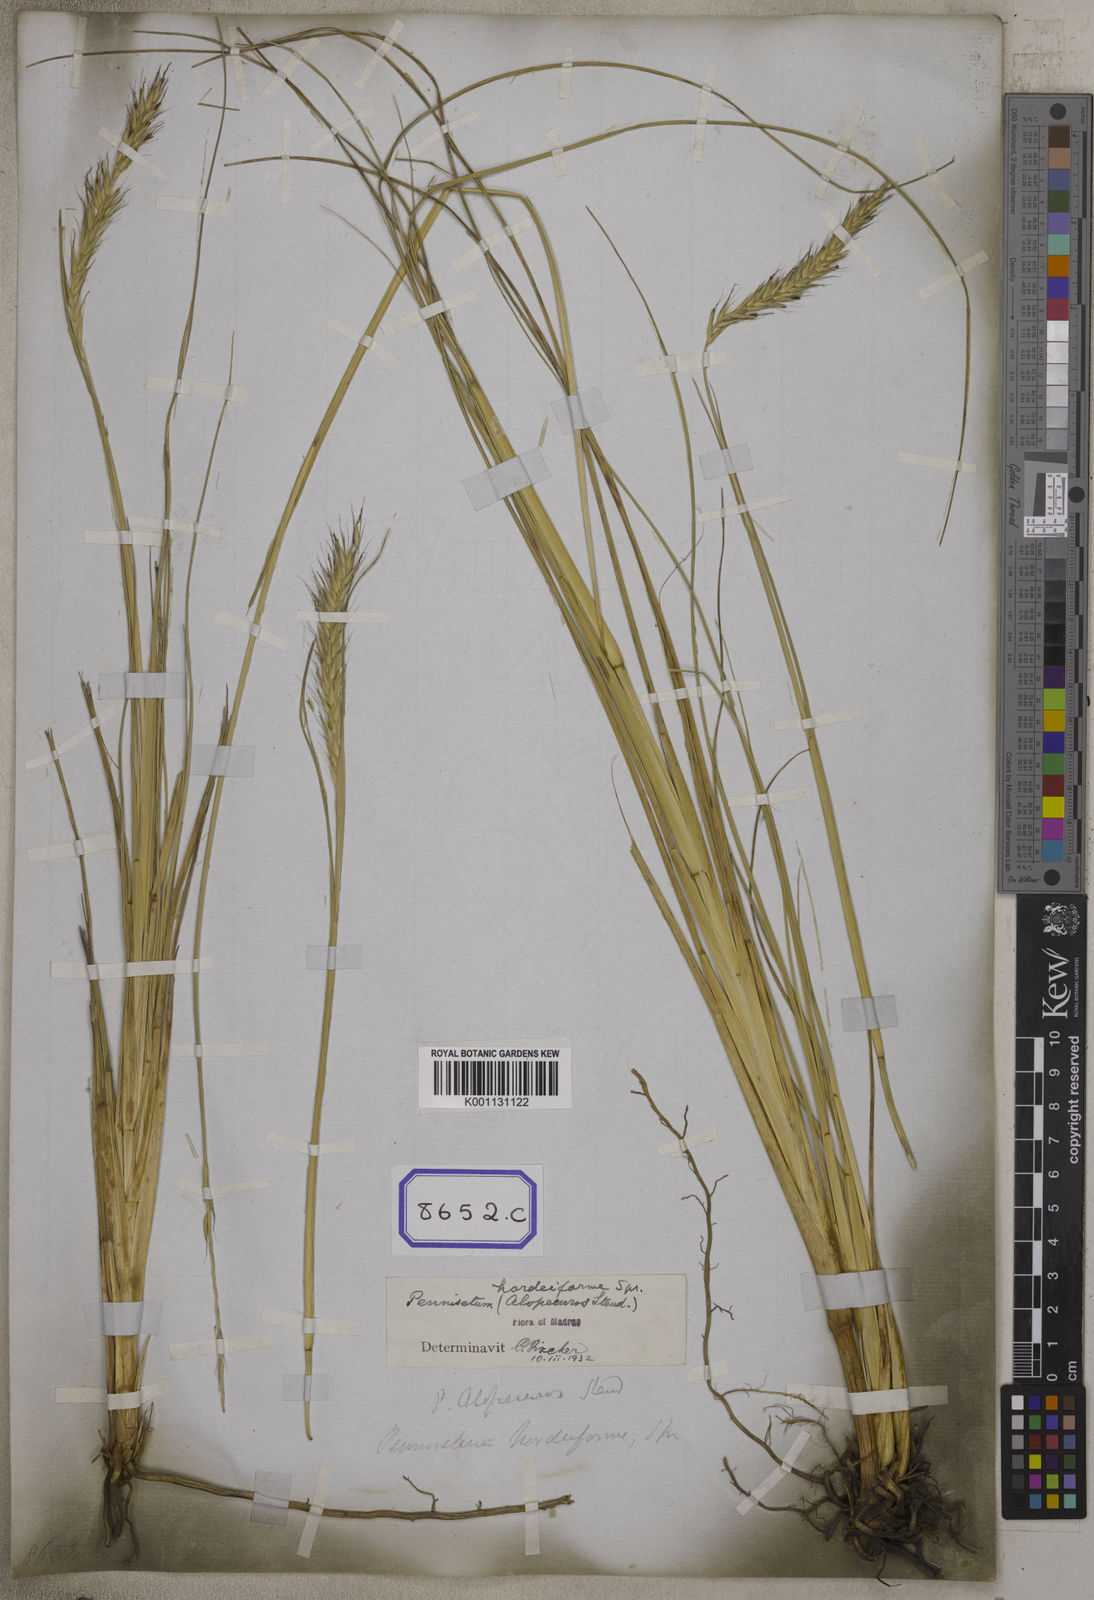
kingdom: Plantae
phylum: Tracheophyta
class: Liliopsida
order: Poales
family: Poaceae
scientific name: Poaceae
